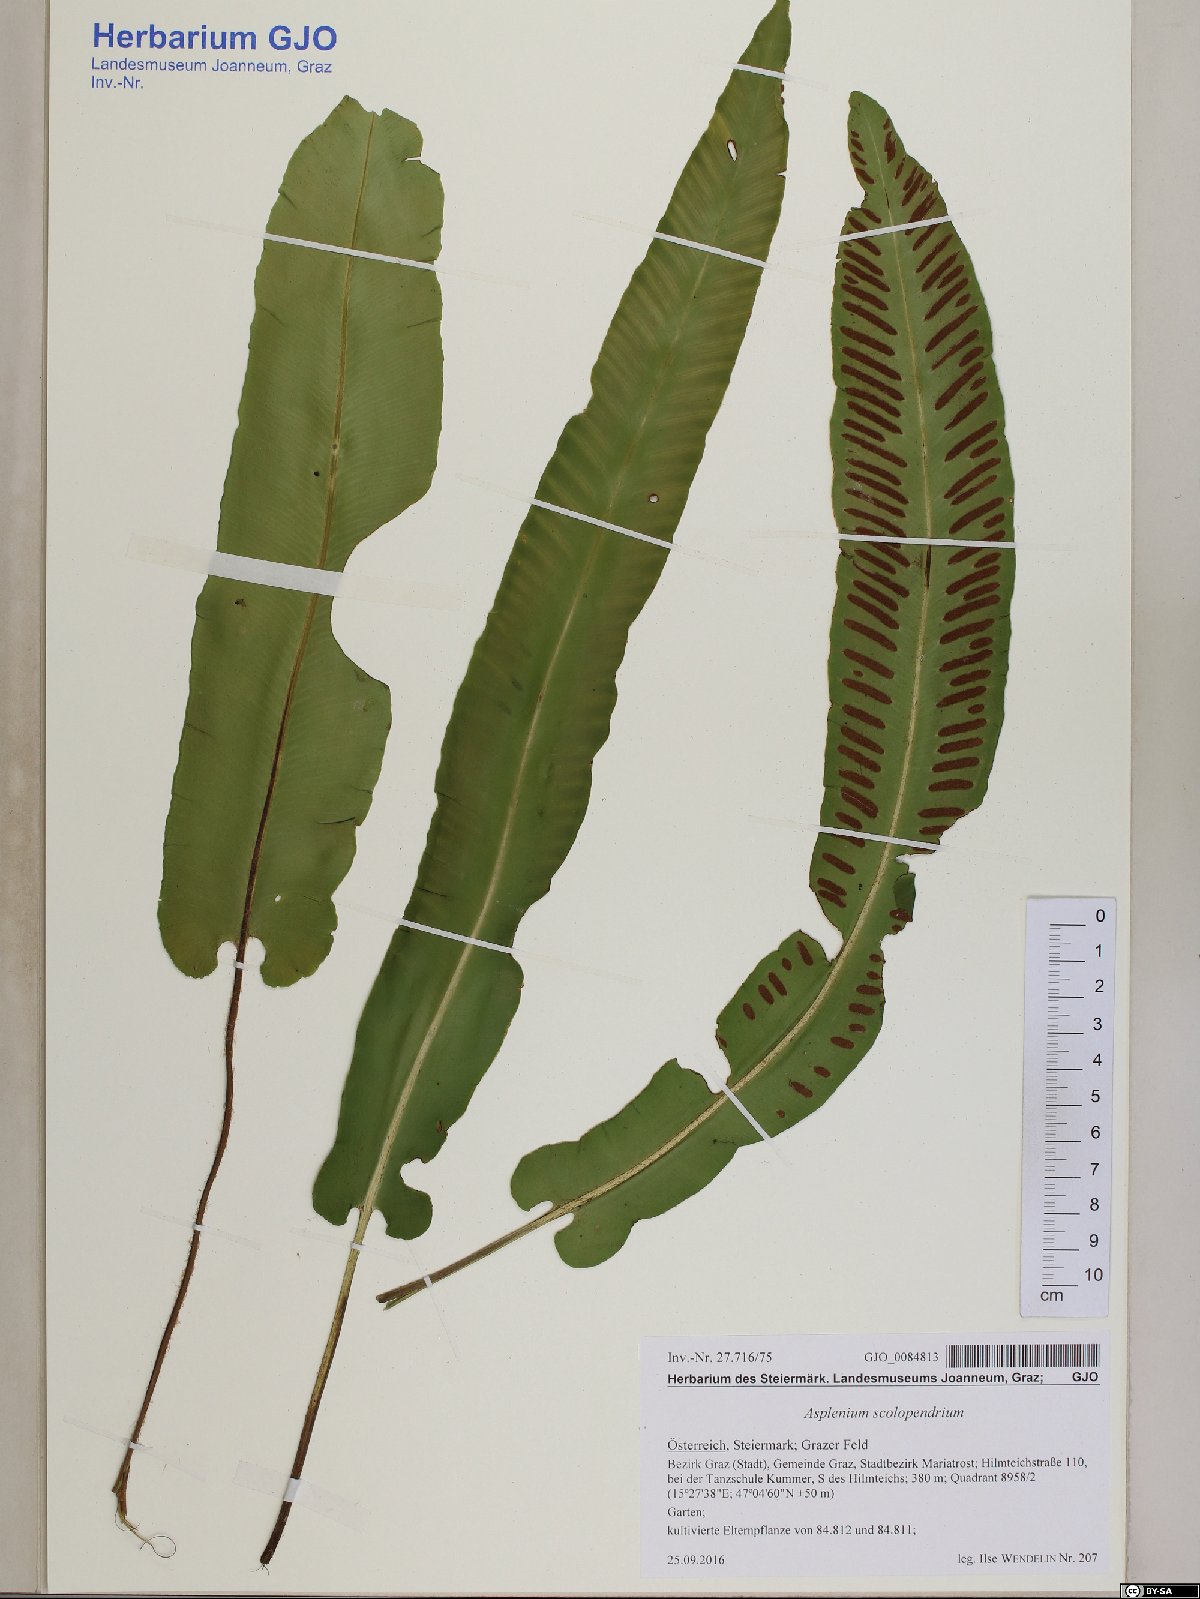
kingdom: Plantae
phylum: Tracheophyta
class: Polypodiopsida
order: Polypodiales
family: Aspleniaceae
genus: Asplenium
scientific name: Asplenium scolopendrium
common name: Hart's-tongue fern
